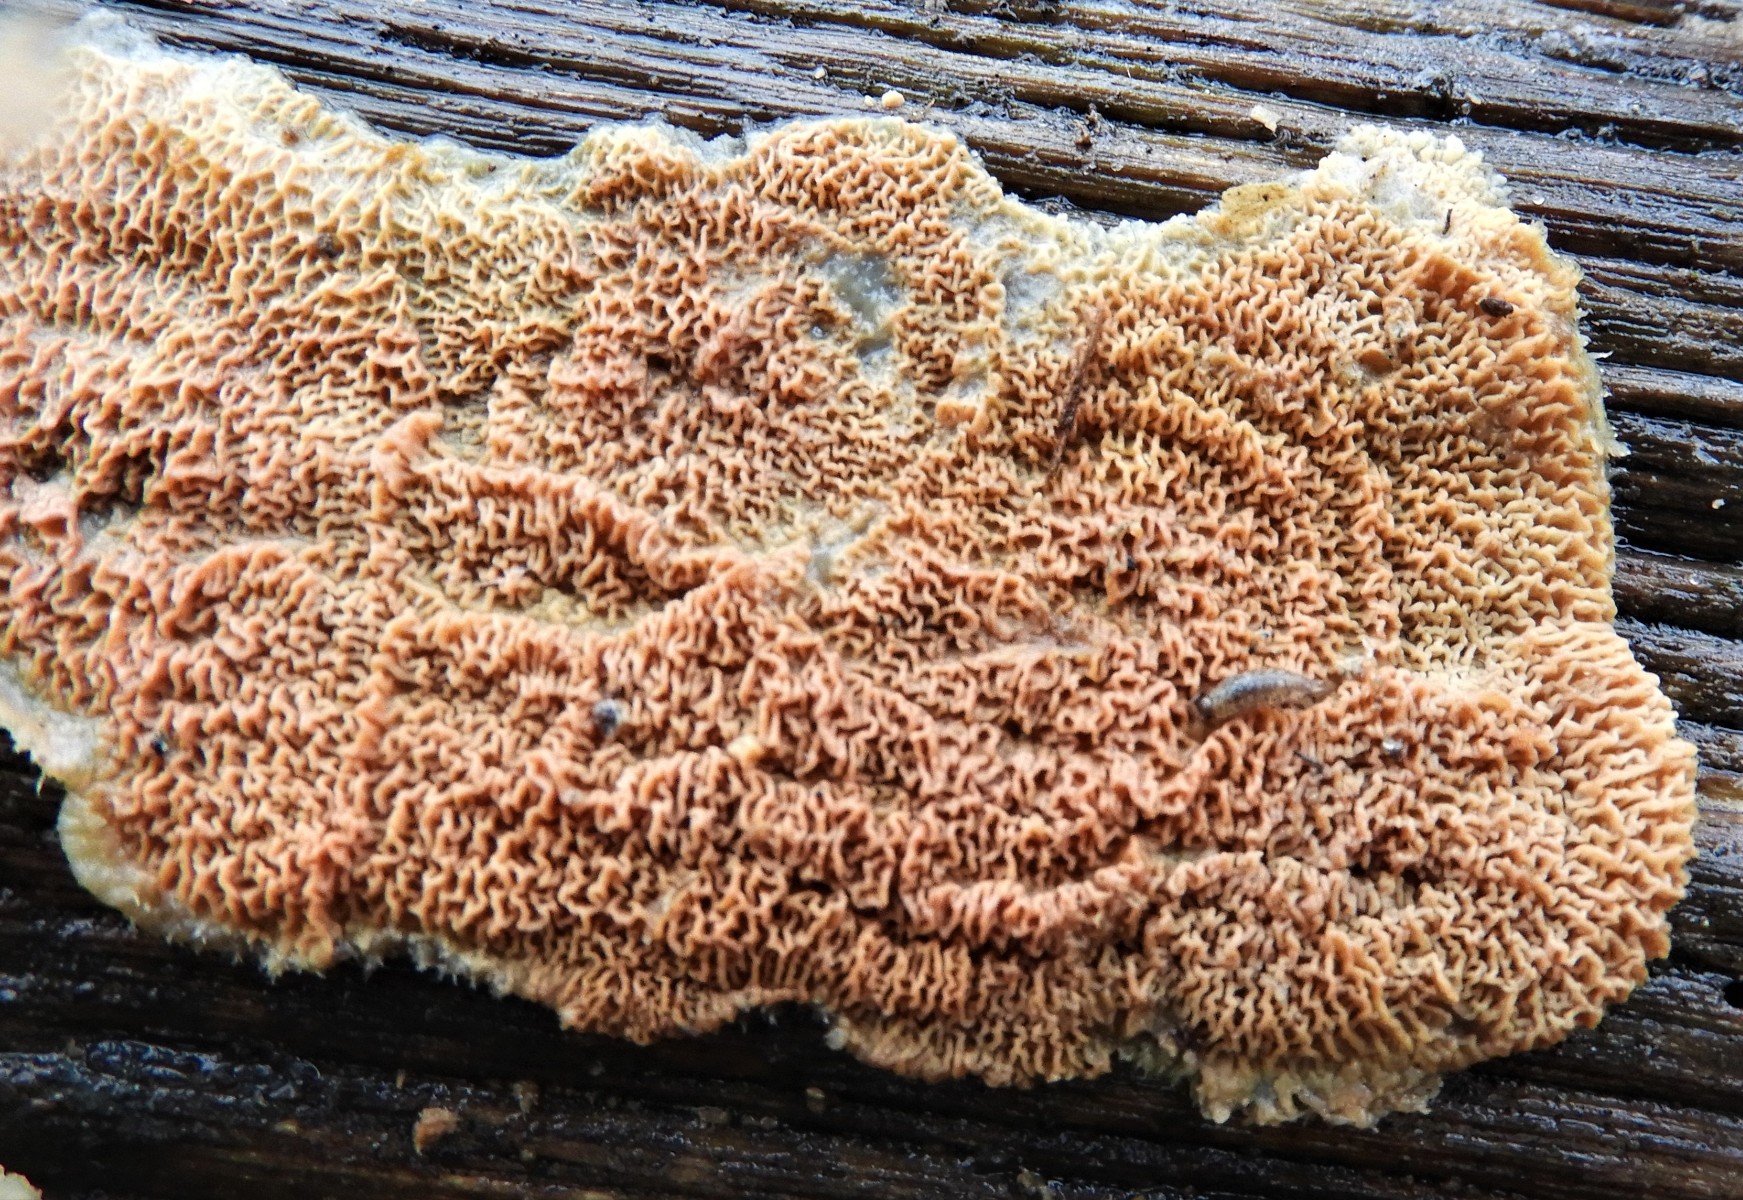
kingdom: Fungi
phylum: Basidiomycota
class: Agaricomycetes
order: Polyporales
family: Meruliaceae
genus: Phlebia
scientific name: Phlebia radiata
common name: stråle-åresvamp
